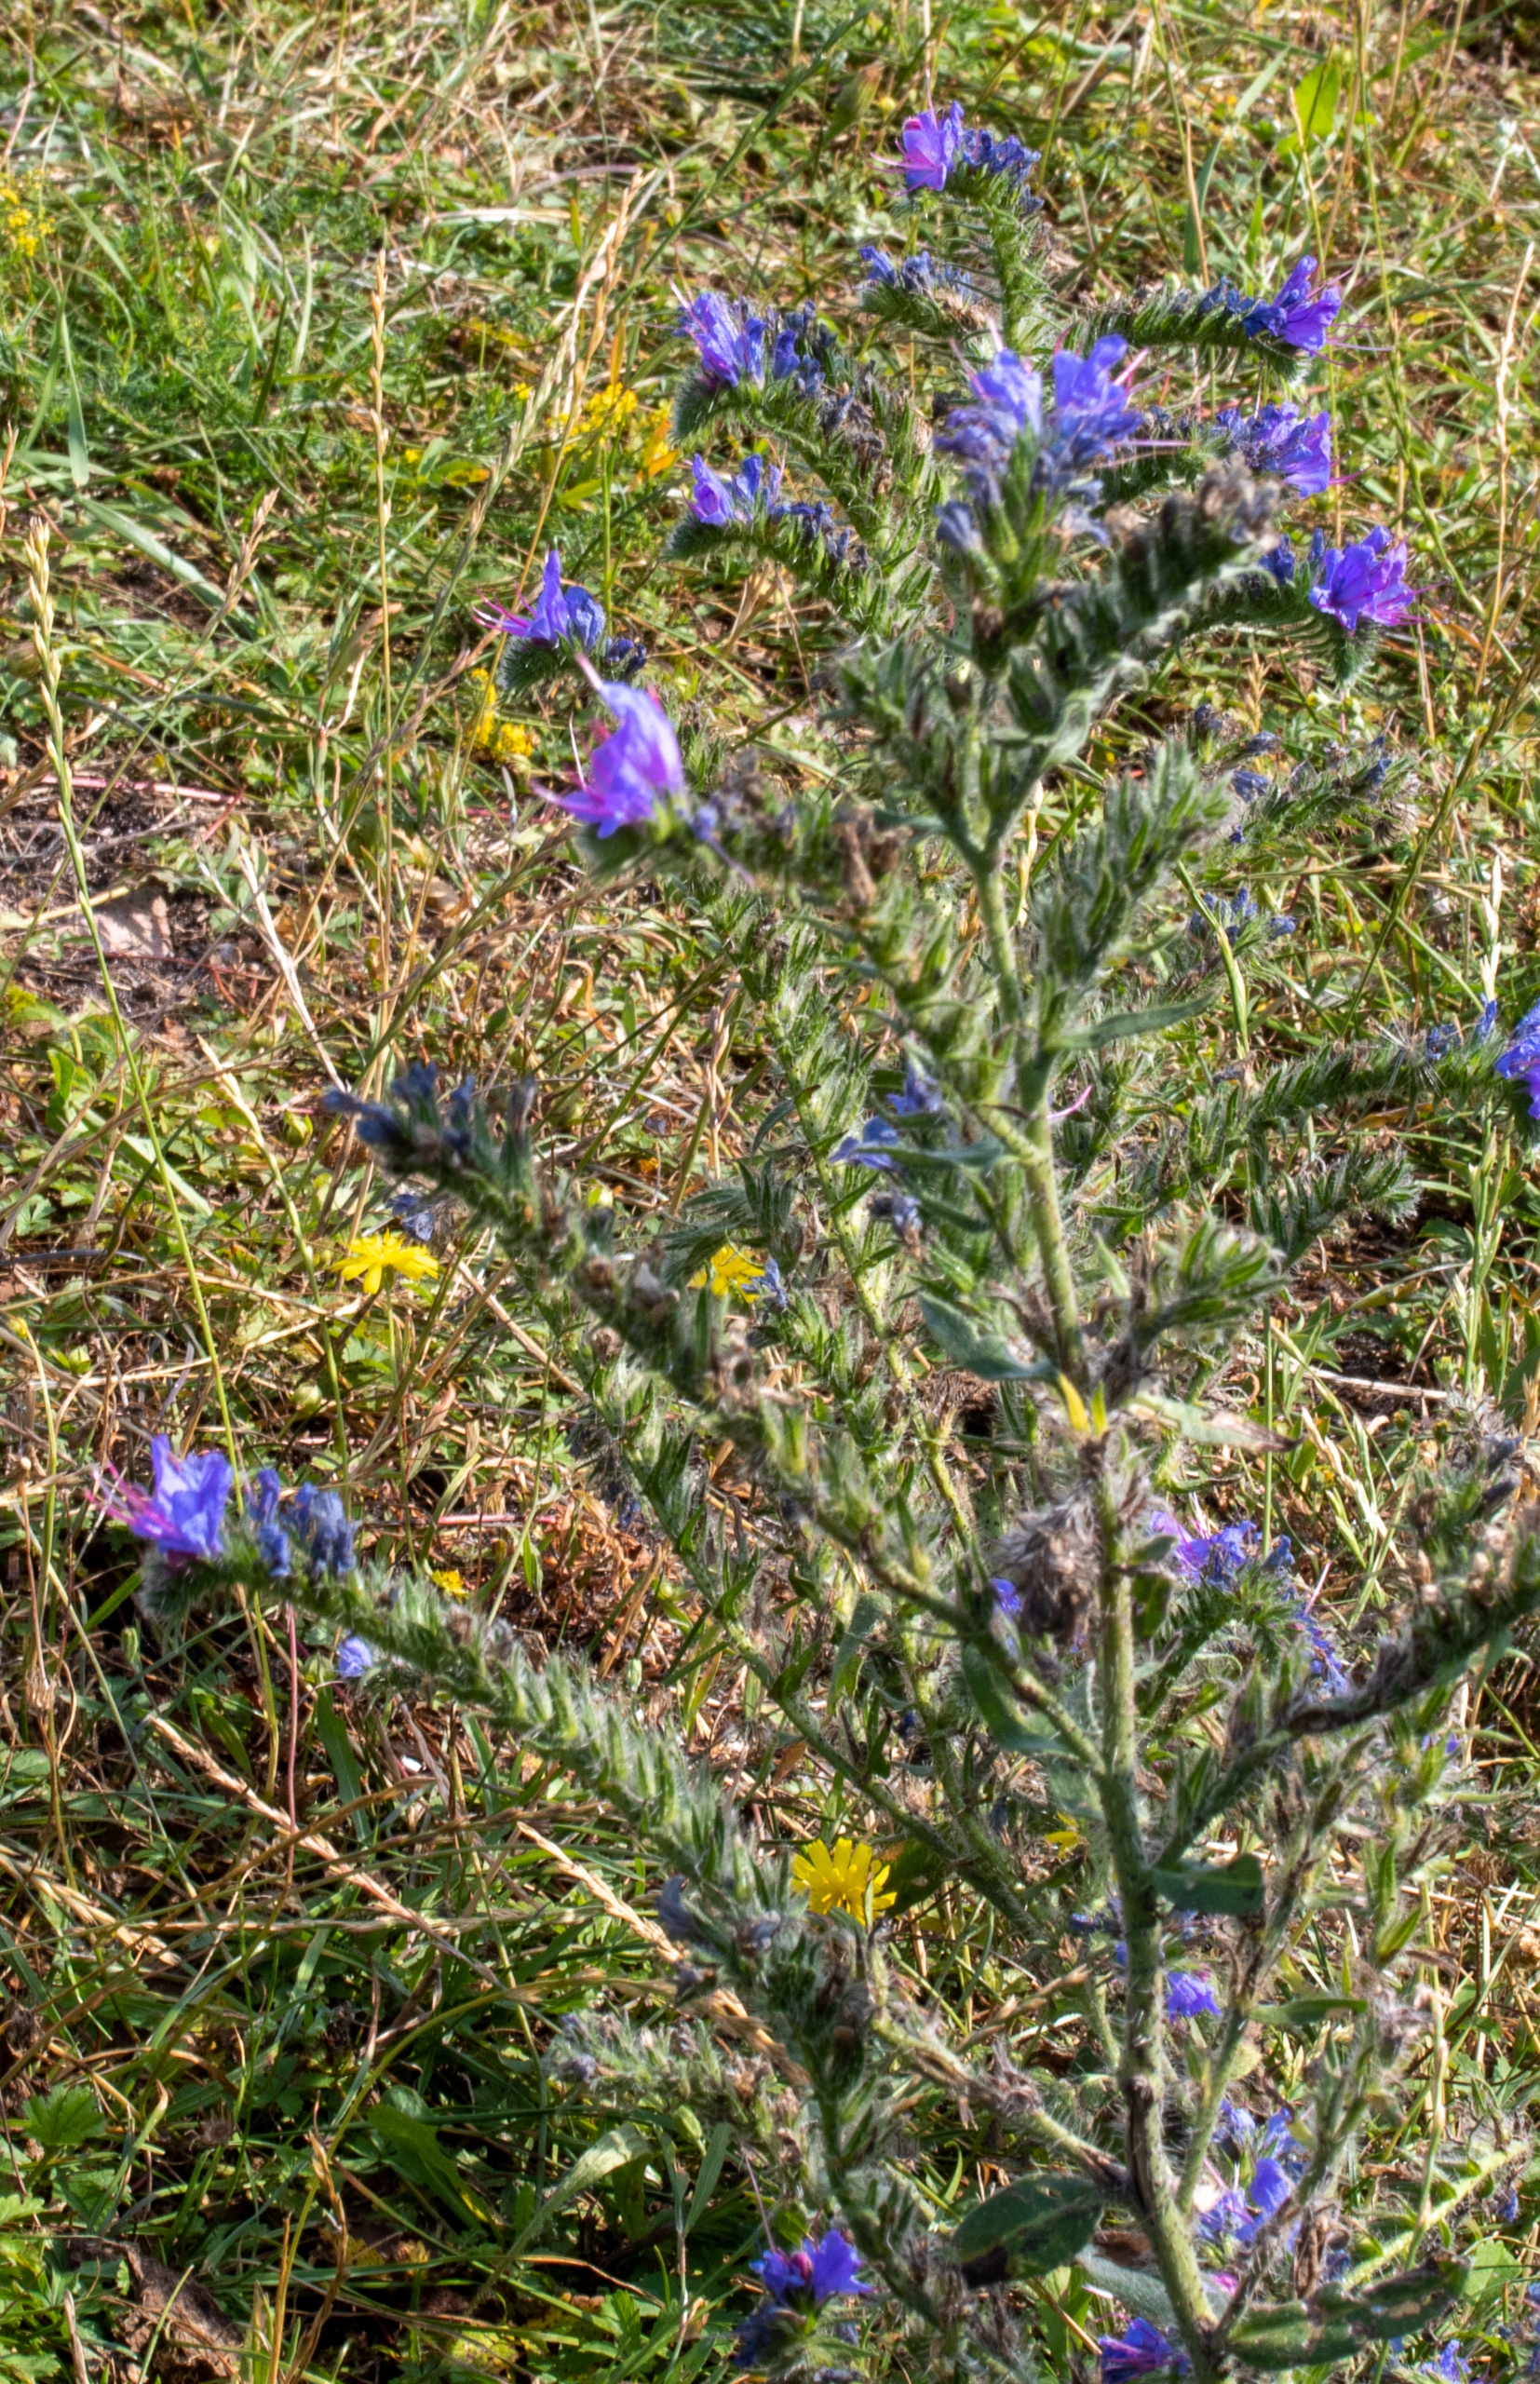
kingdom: Plantae
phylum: Tracheophyta
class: Magnoliopsida
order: Boraginales
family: Boraginaceae
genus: Echium
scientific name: Echium vulgare
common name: Slangehoved
